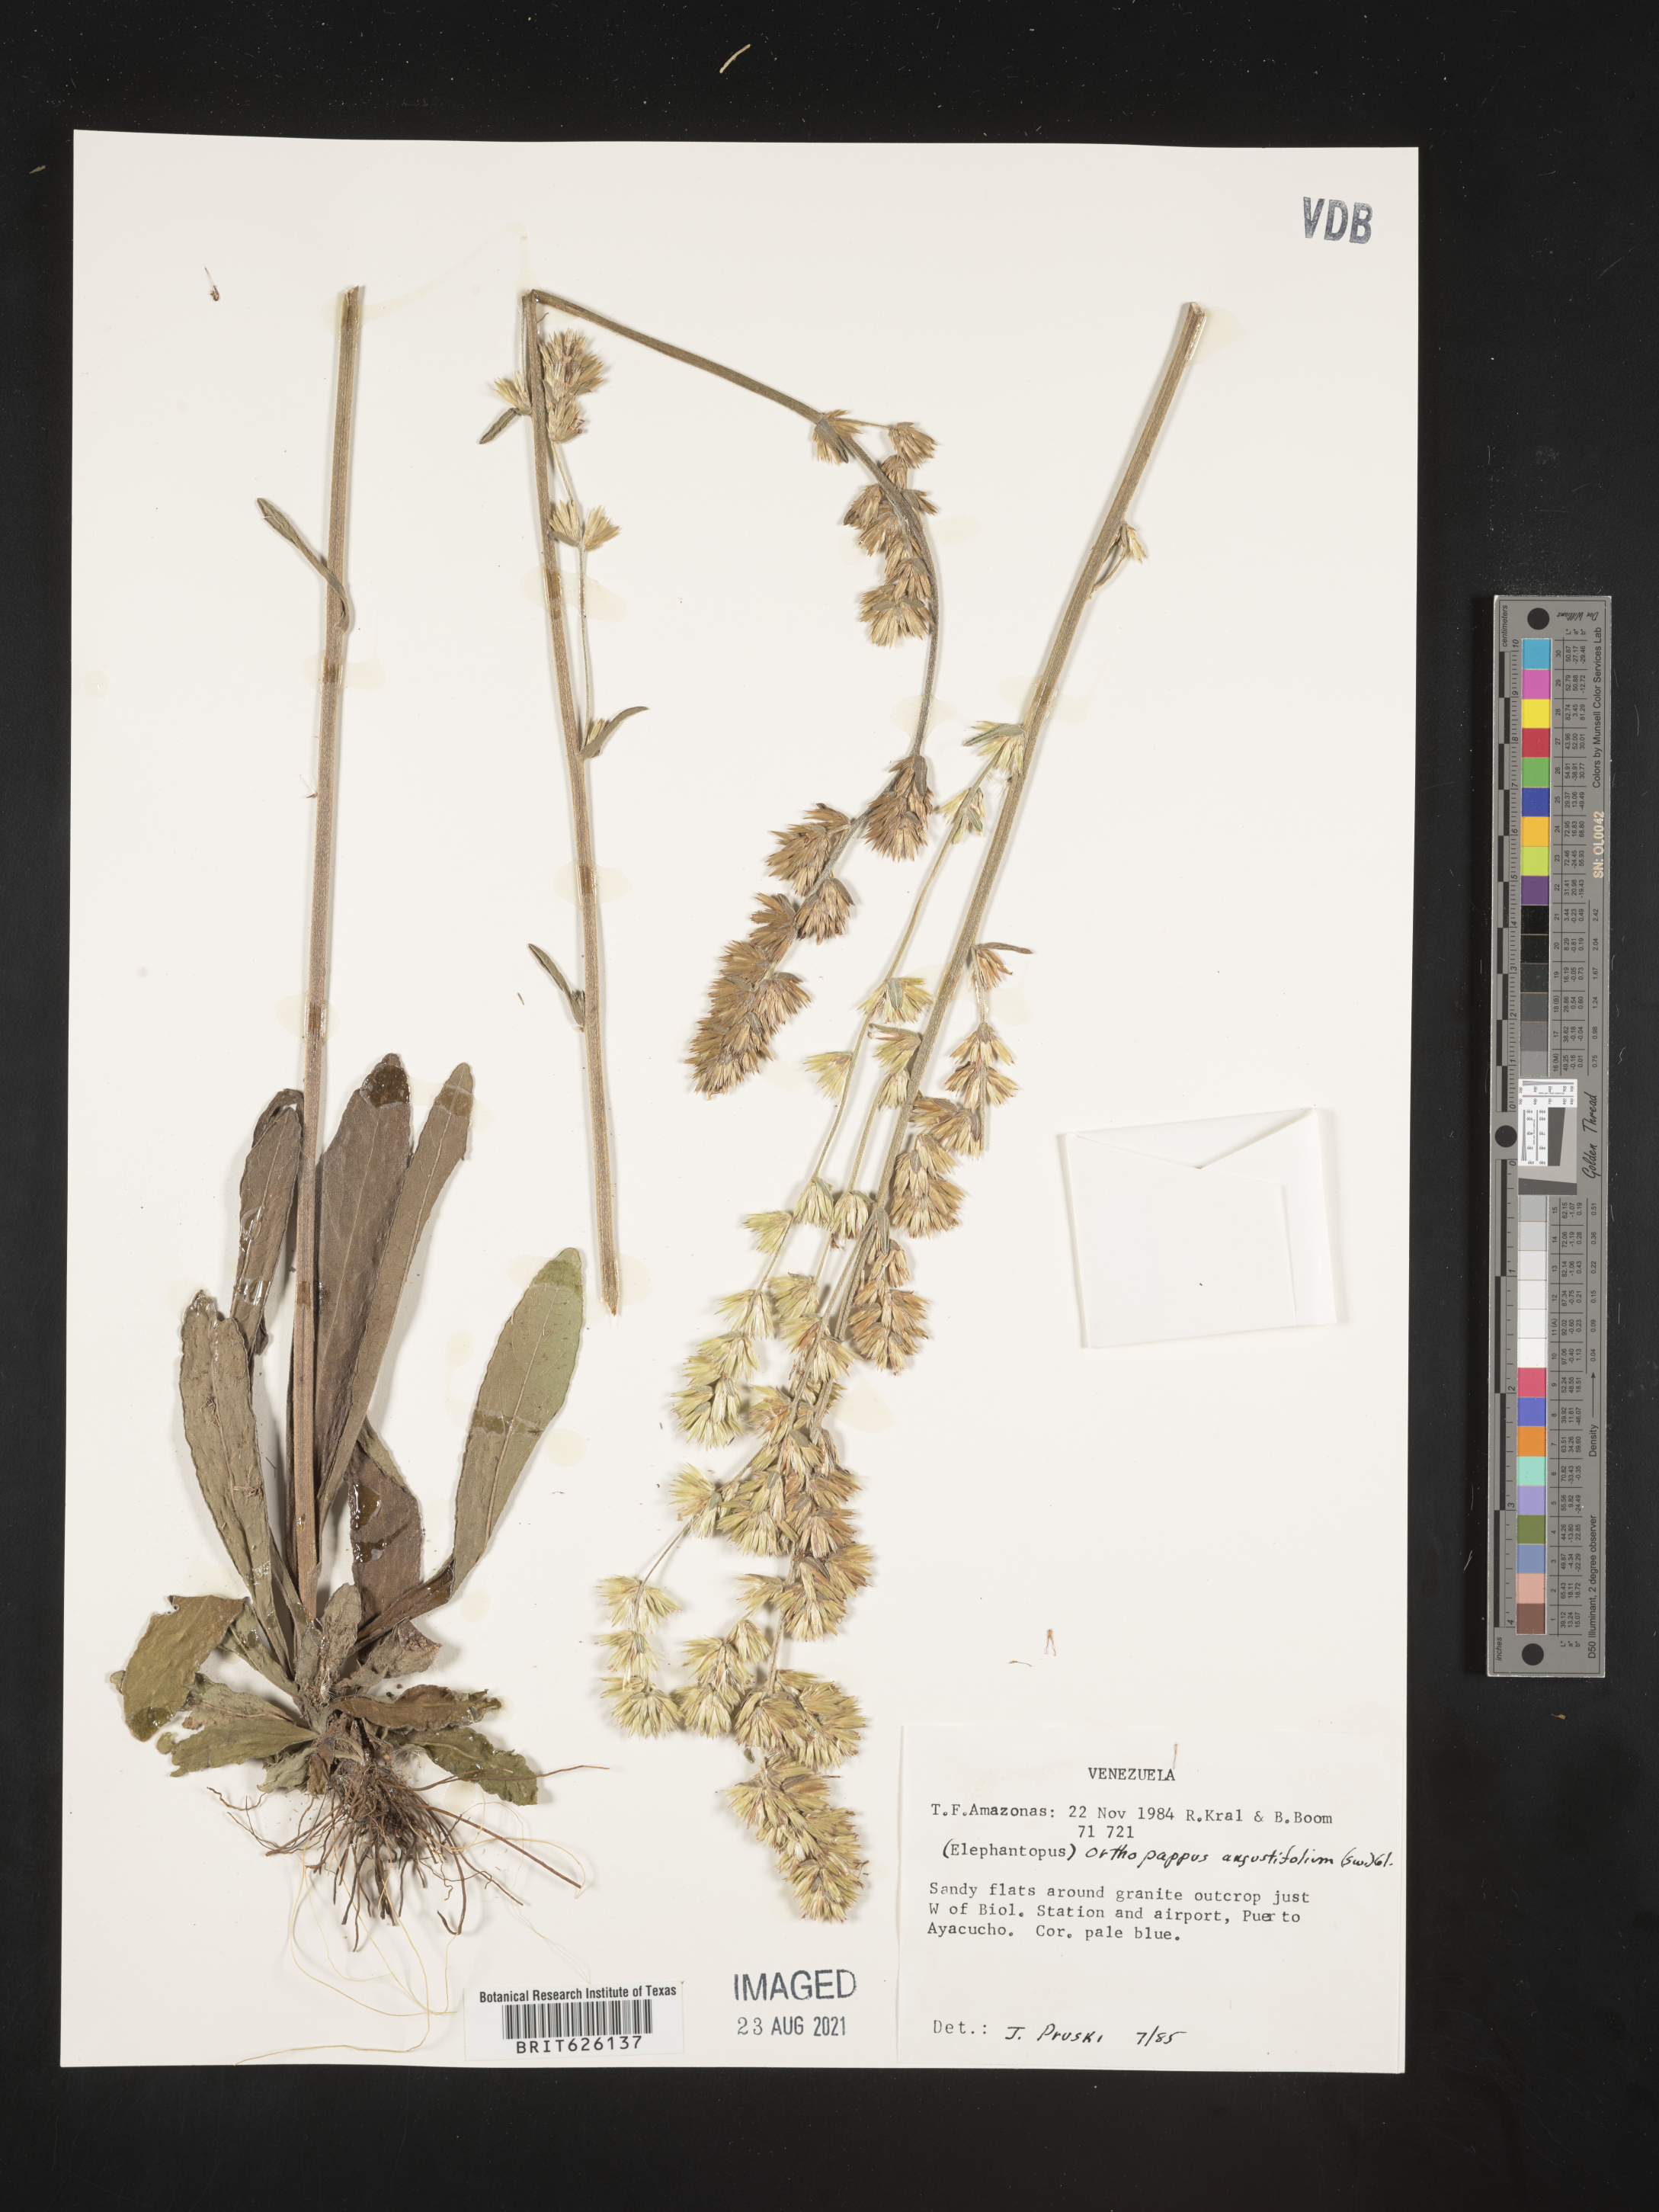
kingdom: Plantae
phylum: Tracheophyta
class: Magnoliopsida
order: Asterales
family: Asteraceae
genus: Orthopappus
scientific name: Orthopappus angustifolius
